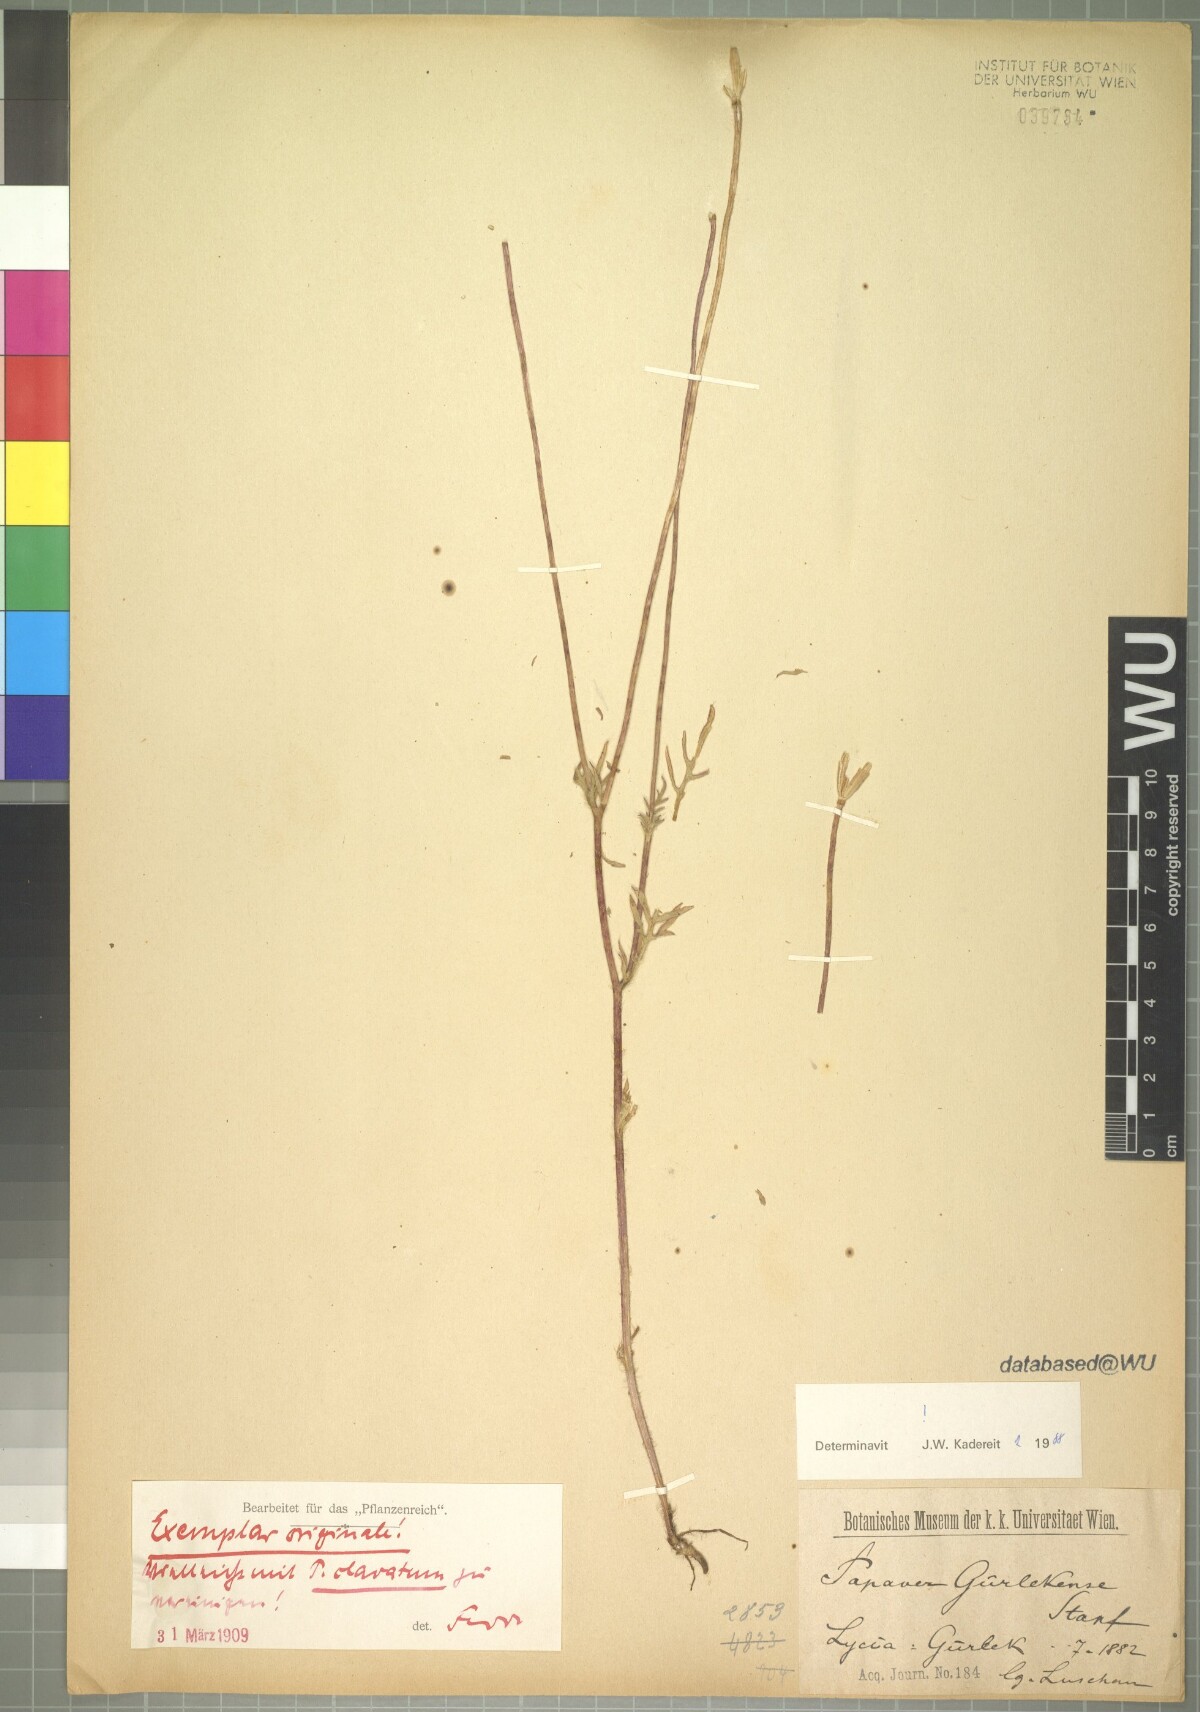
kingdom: Plantae
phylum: Tracheophyta
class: Magnoliopsida
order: Ranunculales
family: Papaveraceae
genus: Papaver
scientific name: Papaver guerlekense
